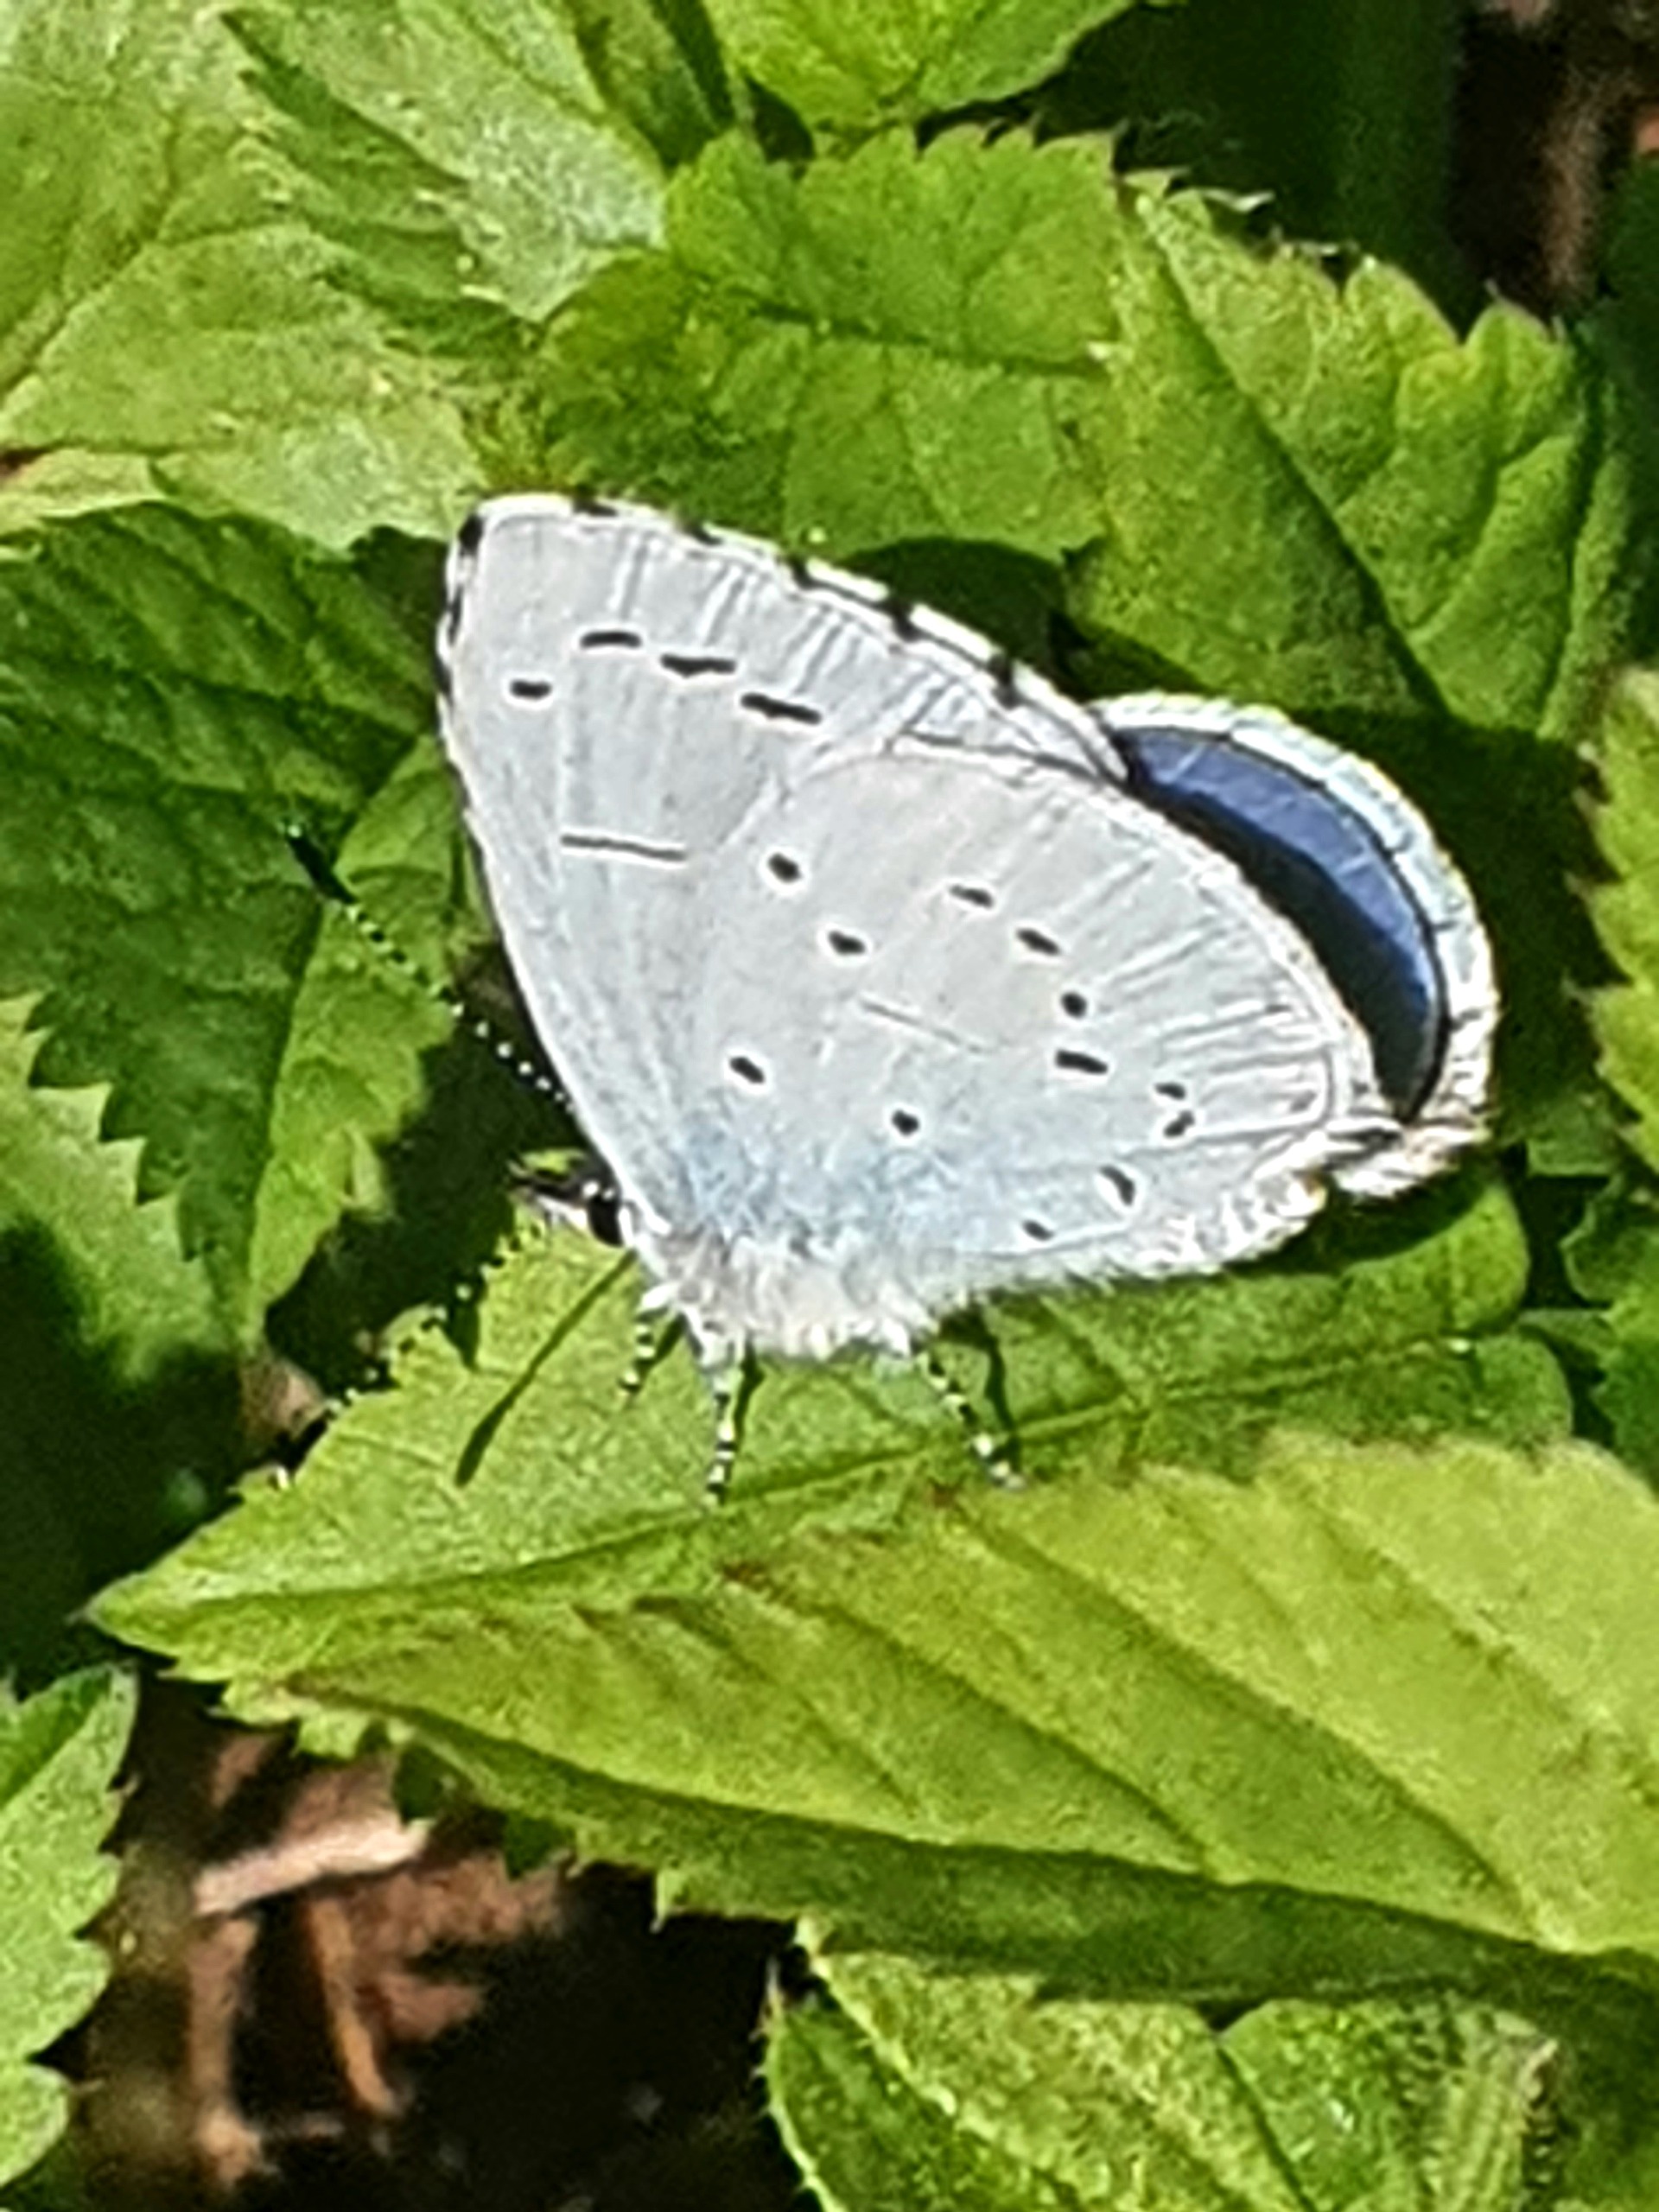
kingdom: Animalia
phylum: Arthropoda
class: Insecta
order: Lepidoptera
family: Lycaenidae
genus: Celastrina
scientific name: Celastrina argiolus
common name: Skovblåfugl
